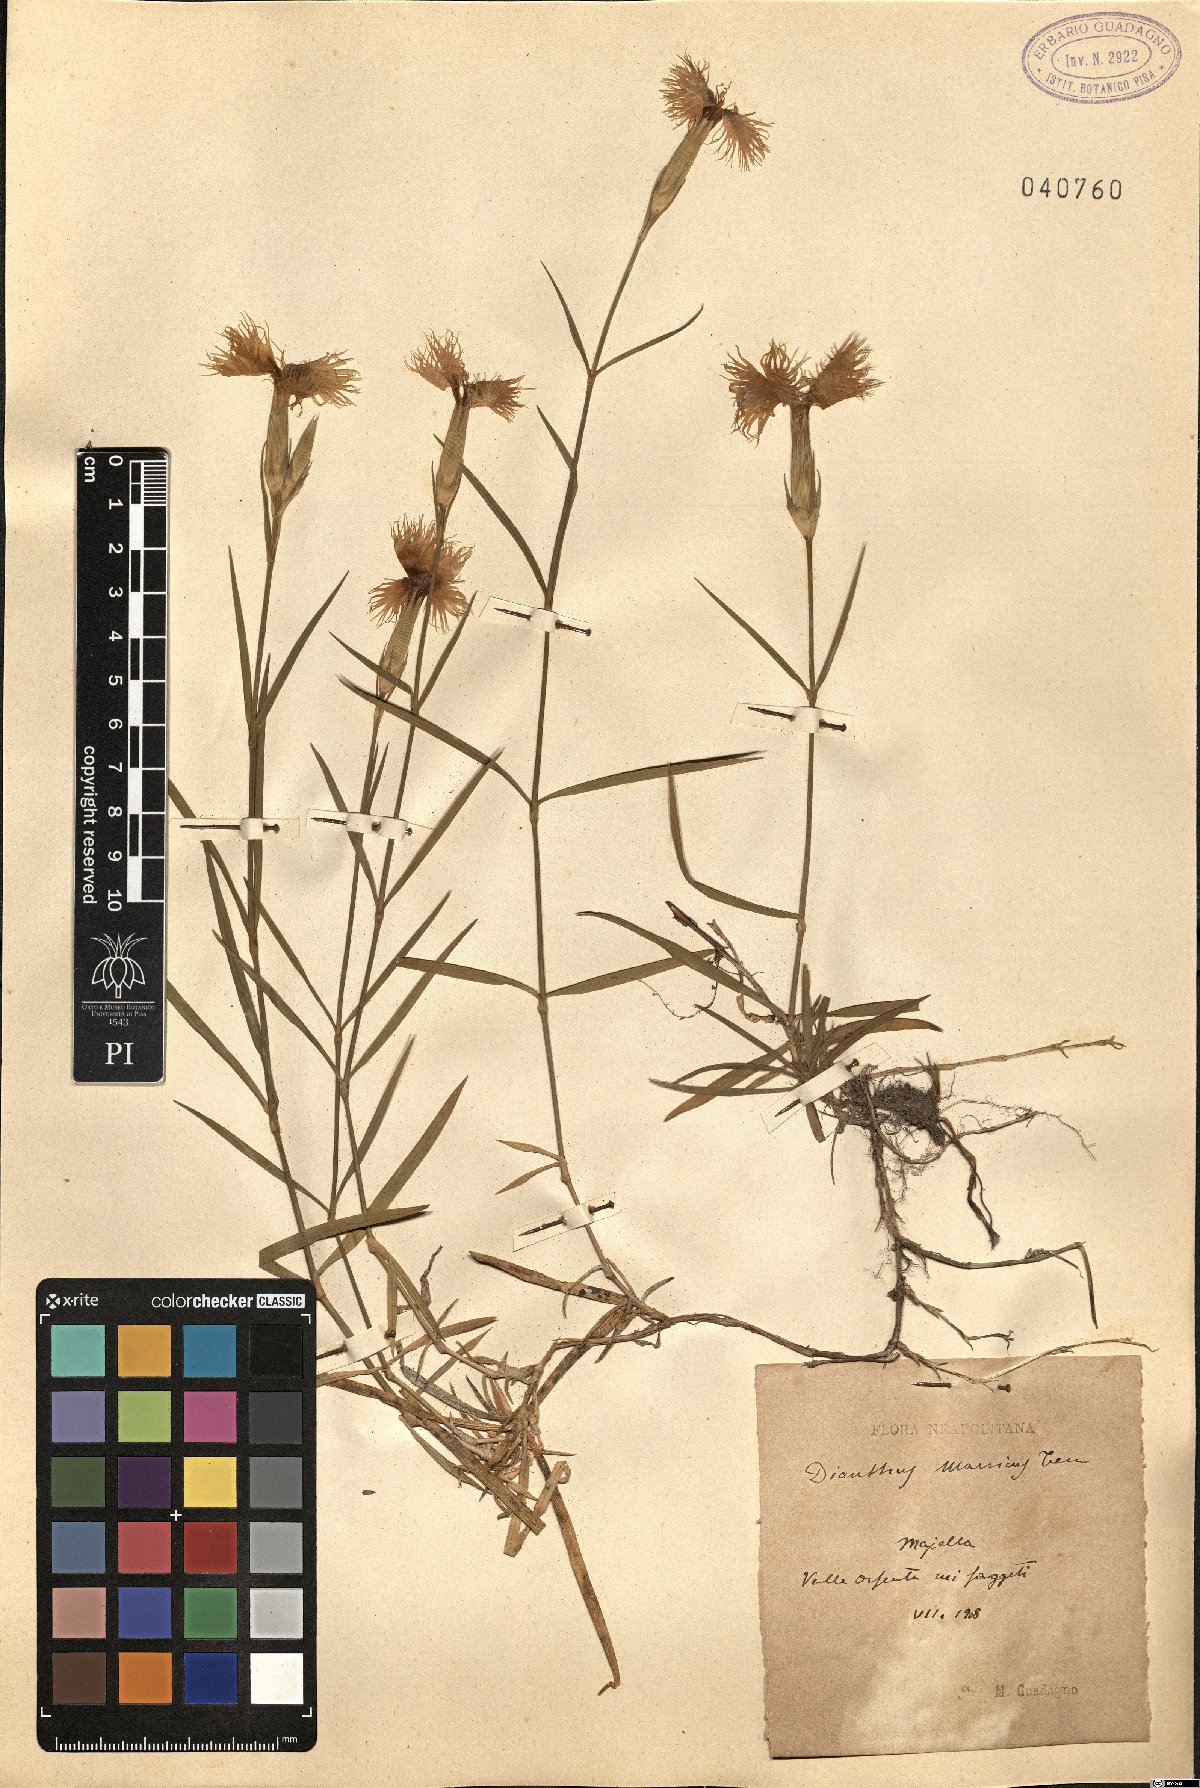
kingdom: Plantae
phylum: Tracheophyta
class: Magnoliopsida
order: Caryophyllales
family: Caryophyllaceae
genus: Dianthus
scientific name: Dianthus sternbergii
